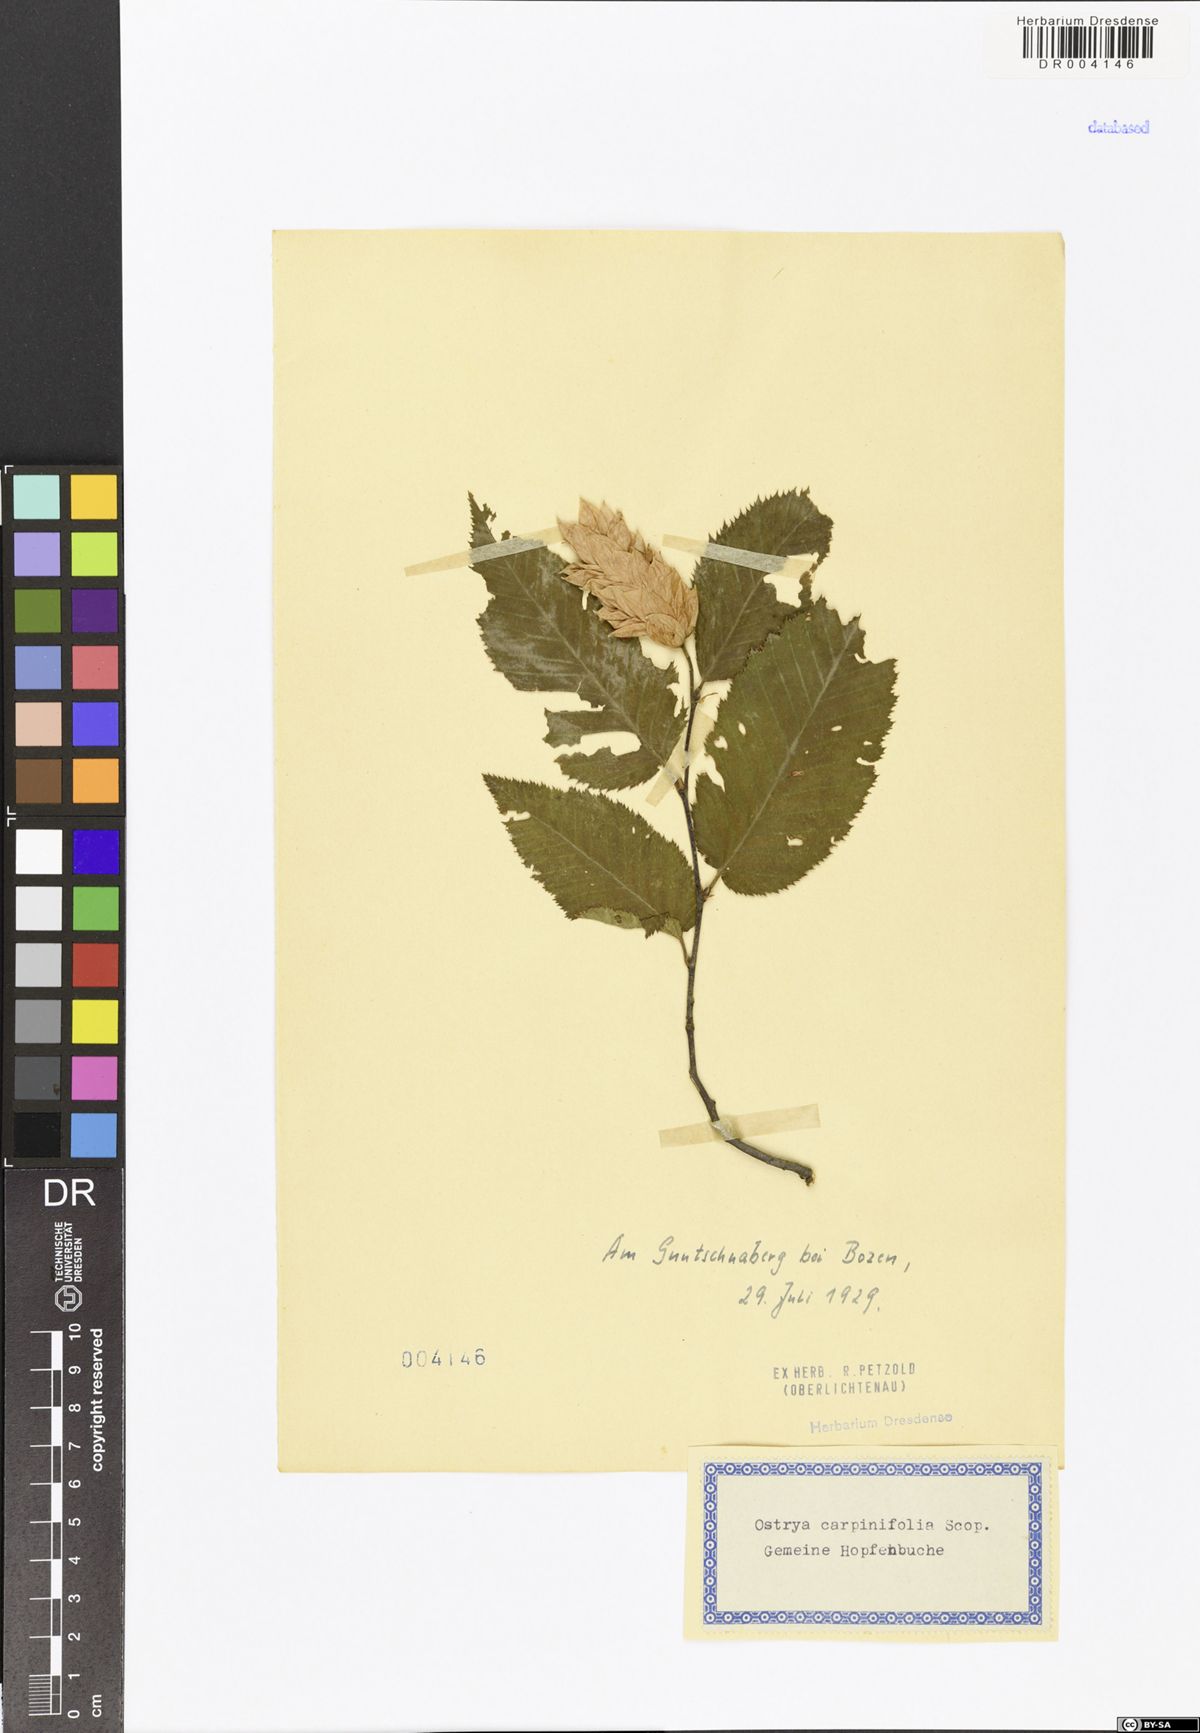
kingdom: Plantae
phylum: Tracheophyta
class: Magnoliopsida
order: Fagales
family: Betulaceae
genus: Ostrya
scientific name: Ostrya carpinifolia
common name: European hop-hornbeam
